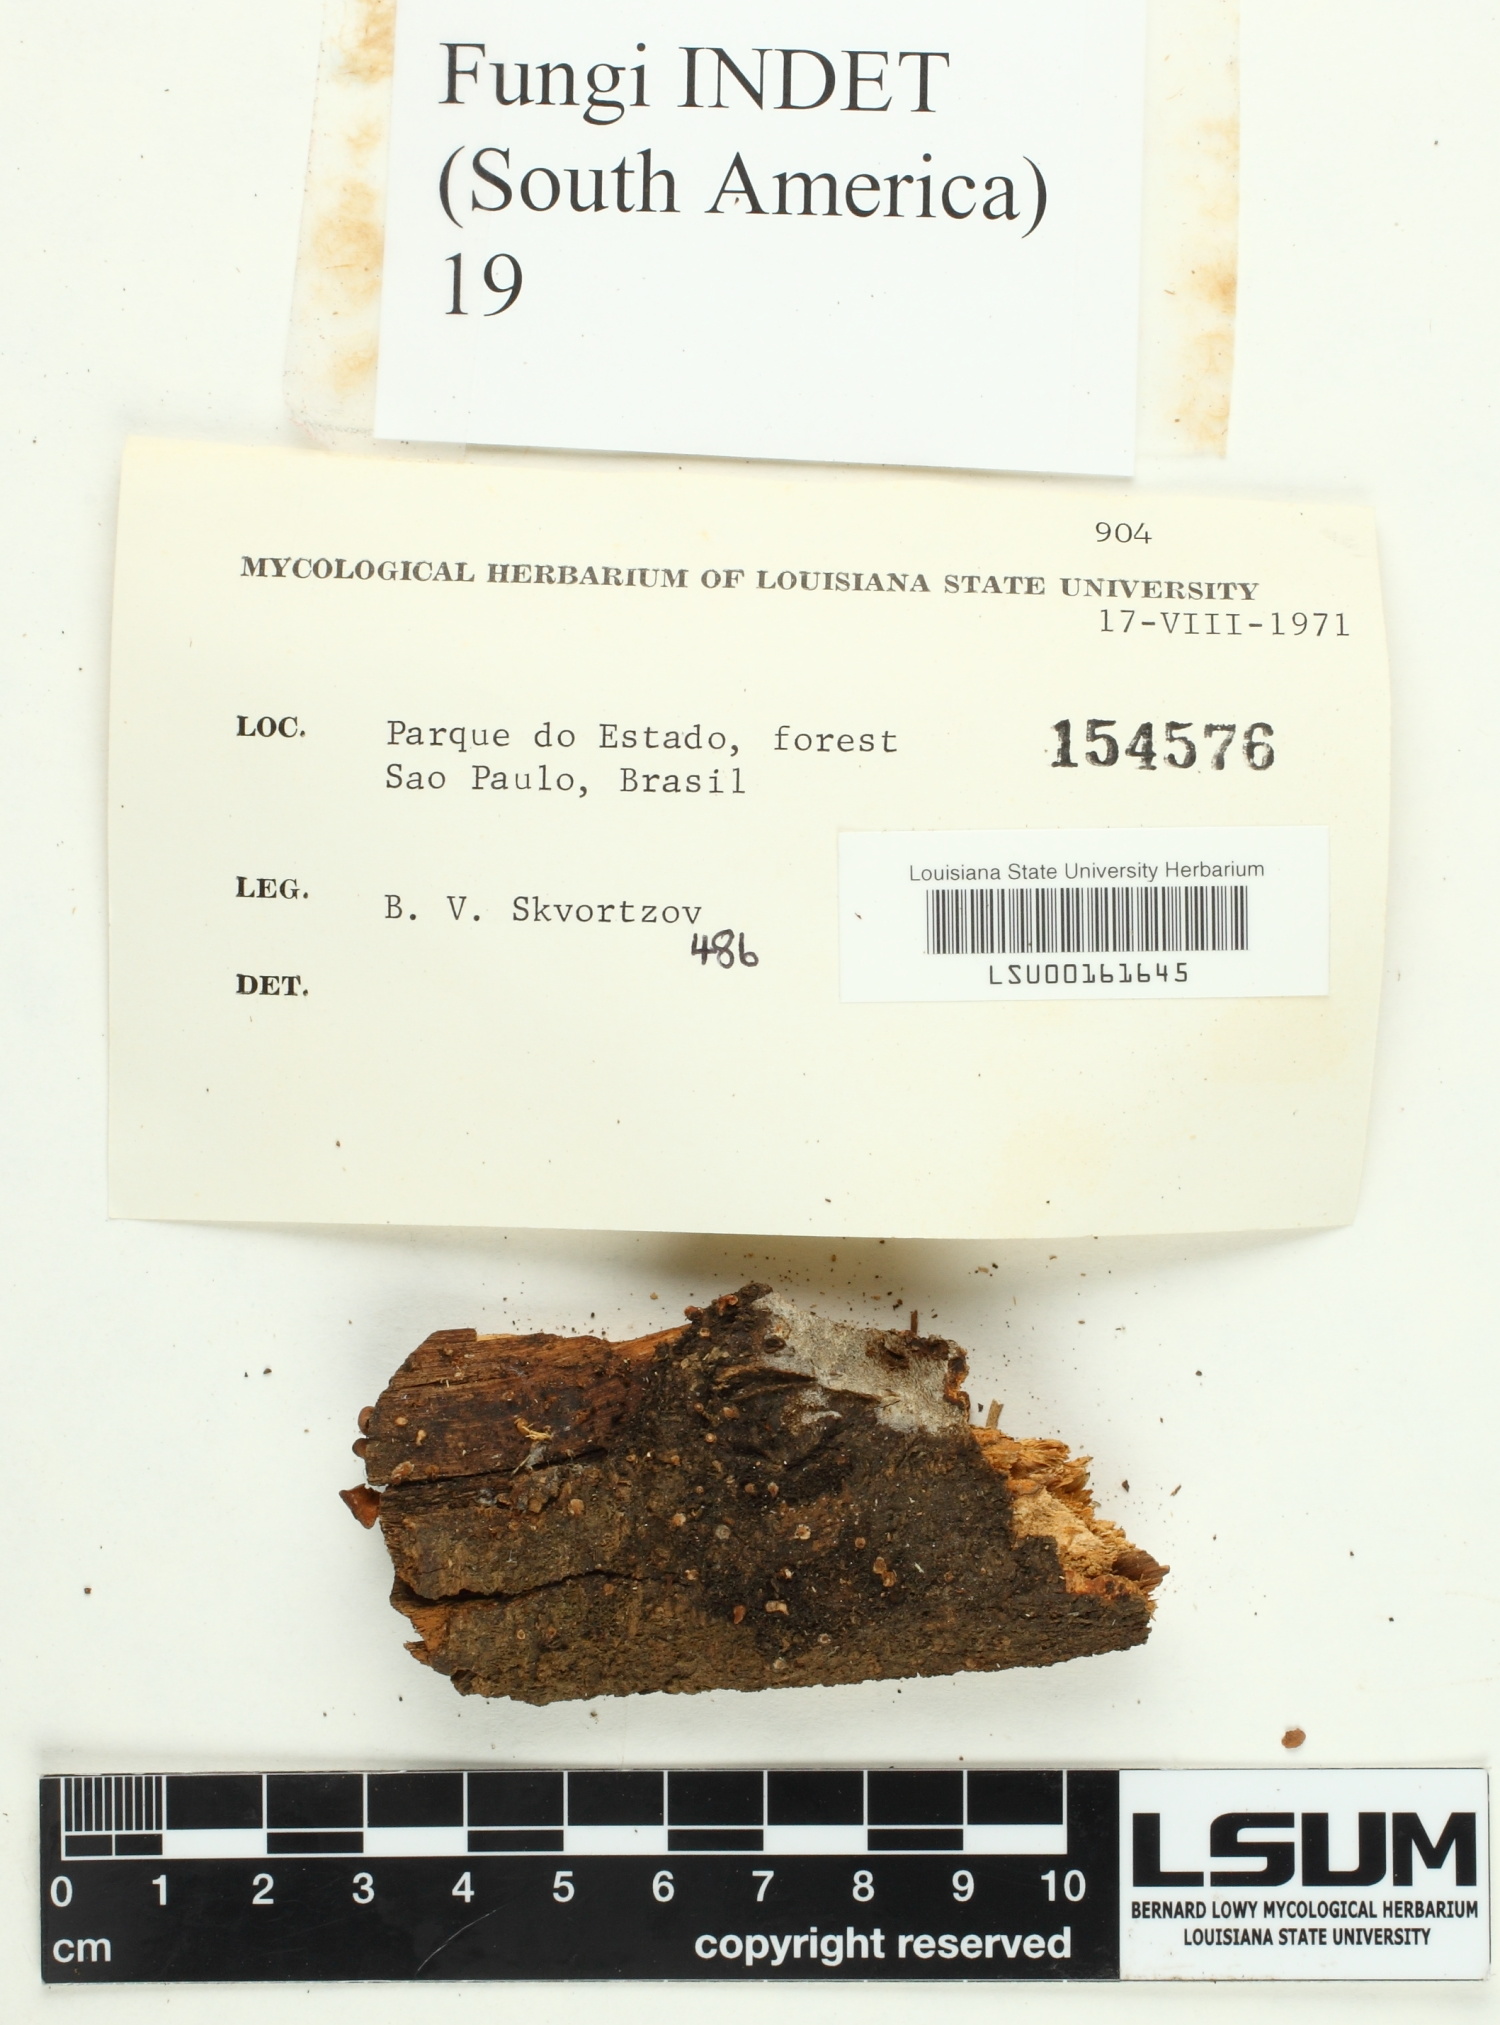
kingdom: Fungi
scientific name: Fungi
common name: Fungi
